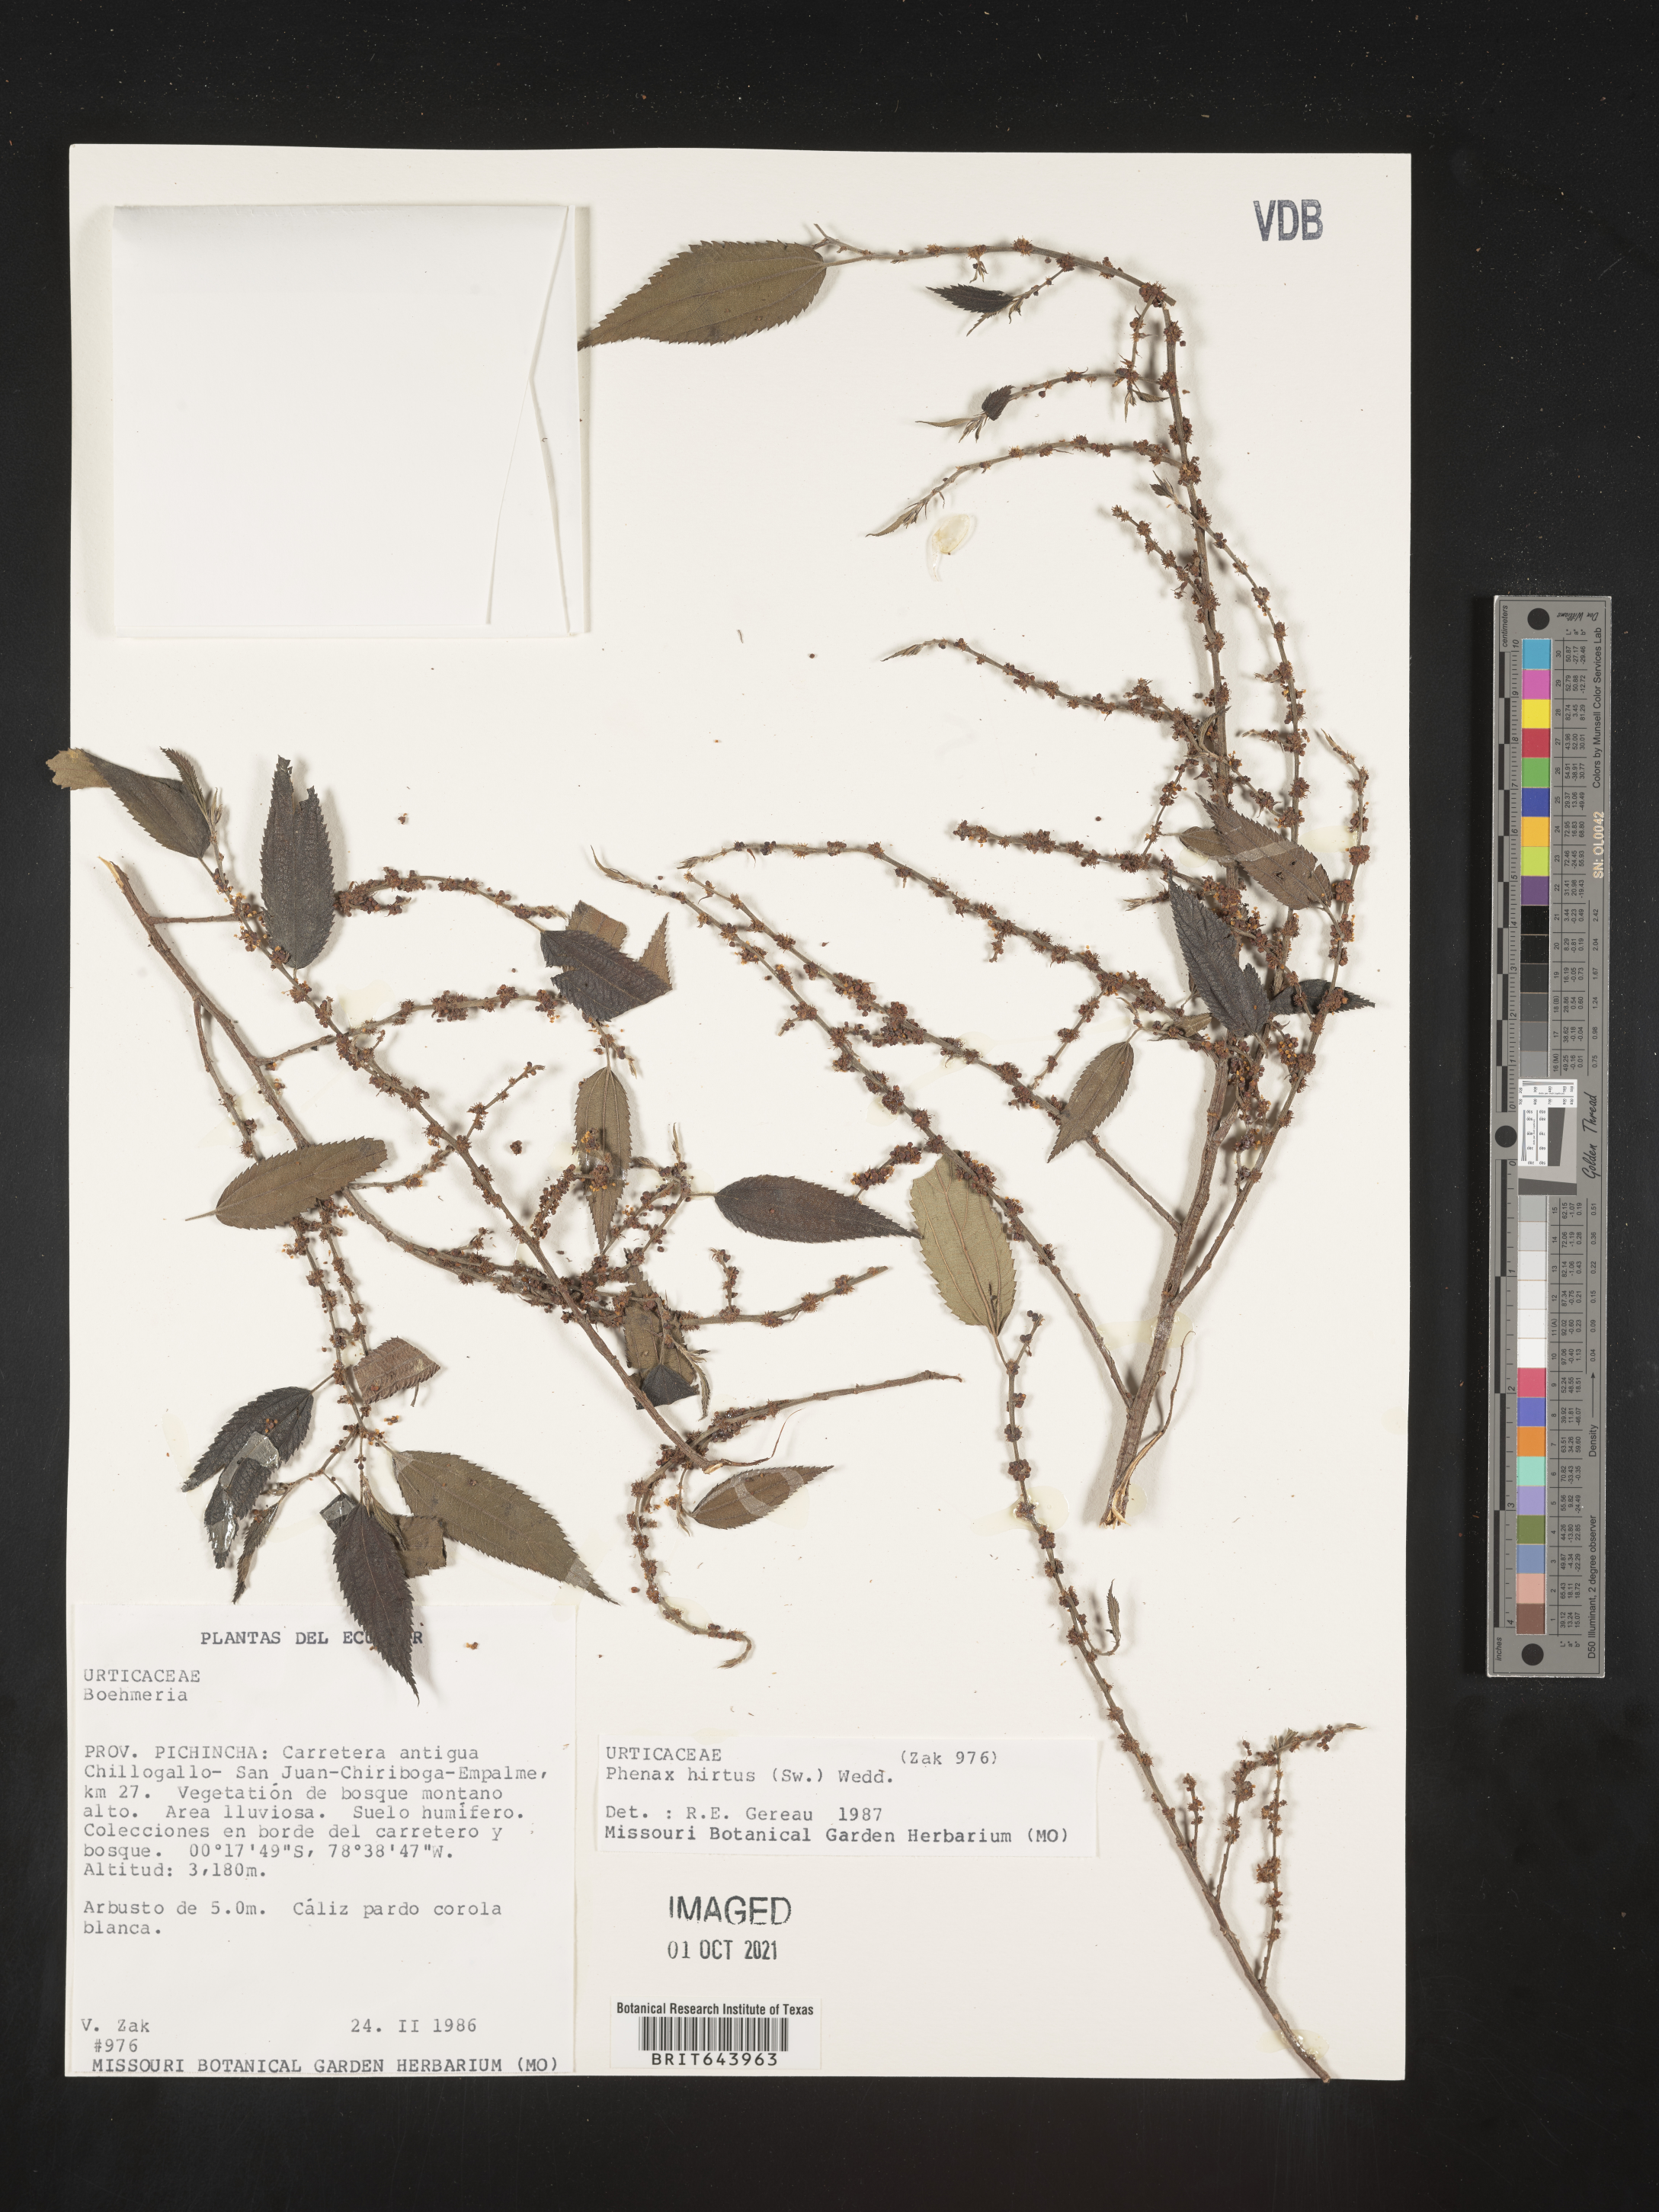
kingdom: Plantae
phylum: Tracheophyta
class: Magnoliopsida
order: Rosales
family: Urticaceae
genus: Phenax
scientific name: Phenax
